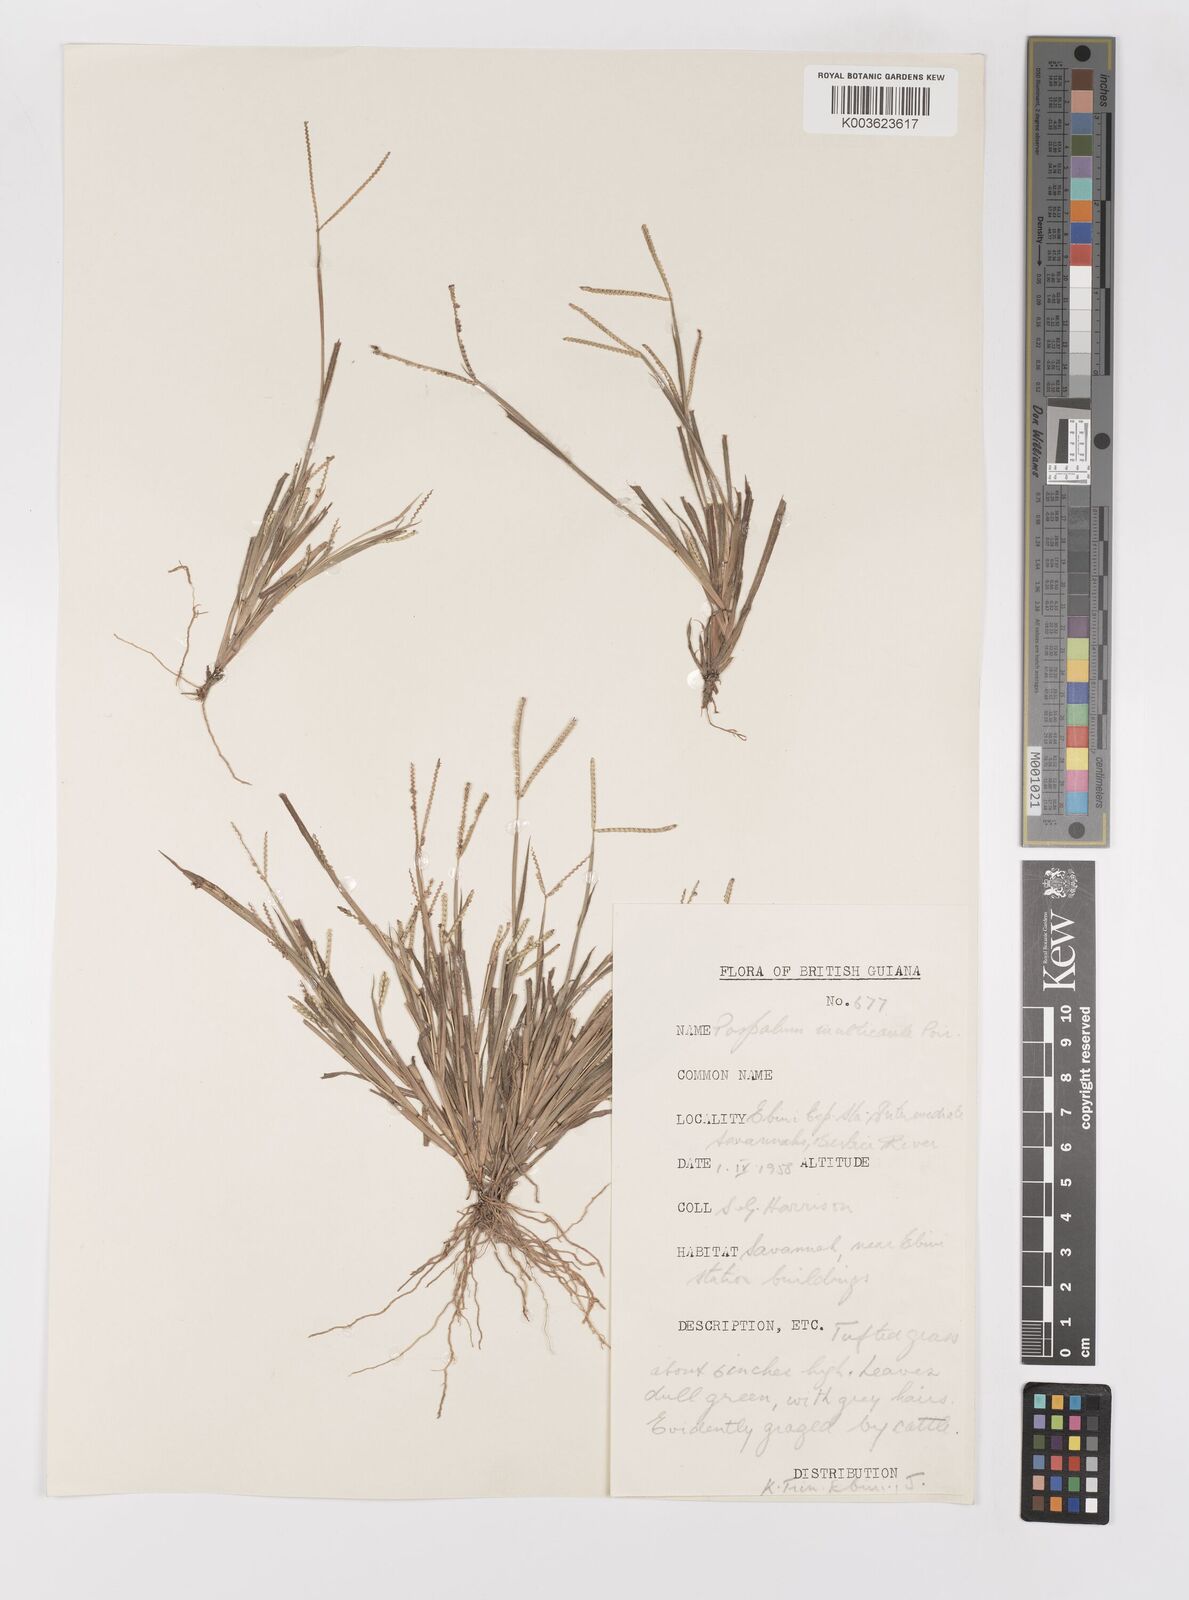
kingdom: Plantae
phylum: Tracheophyta
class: Liliopsida
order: Poales
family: Poaceae
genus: Paspalum
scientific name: Paspalum multicaule
